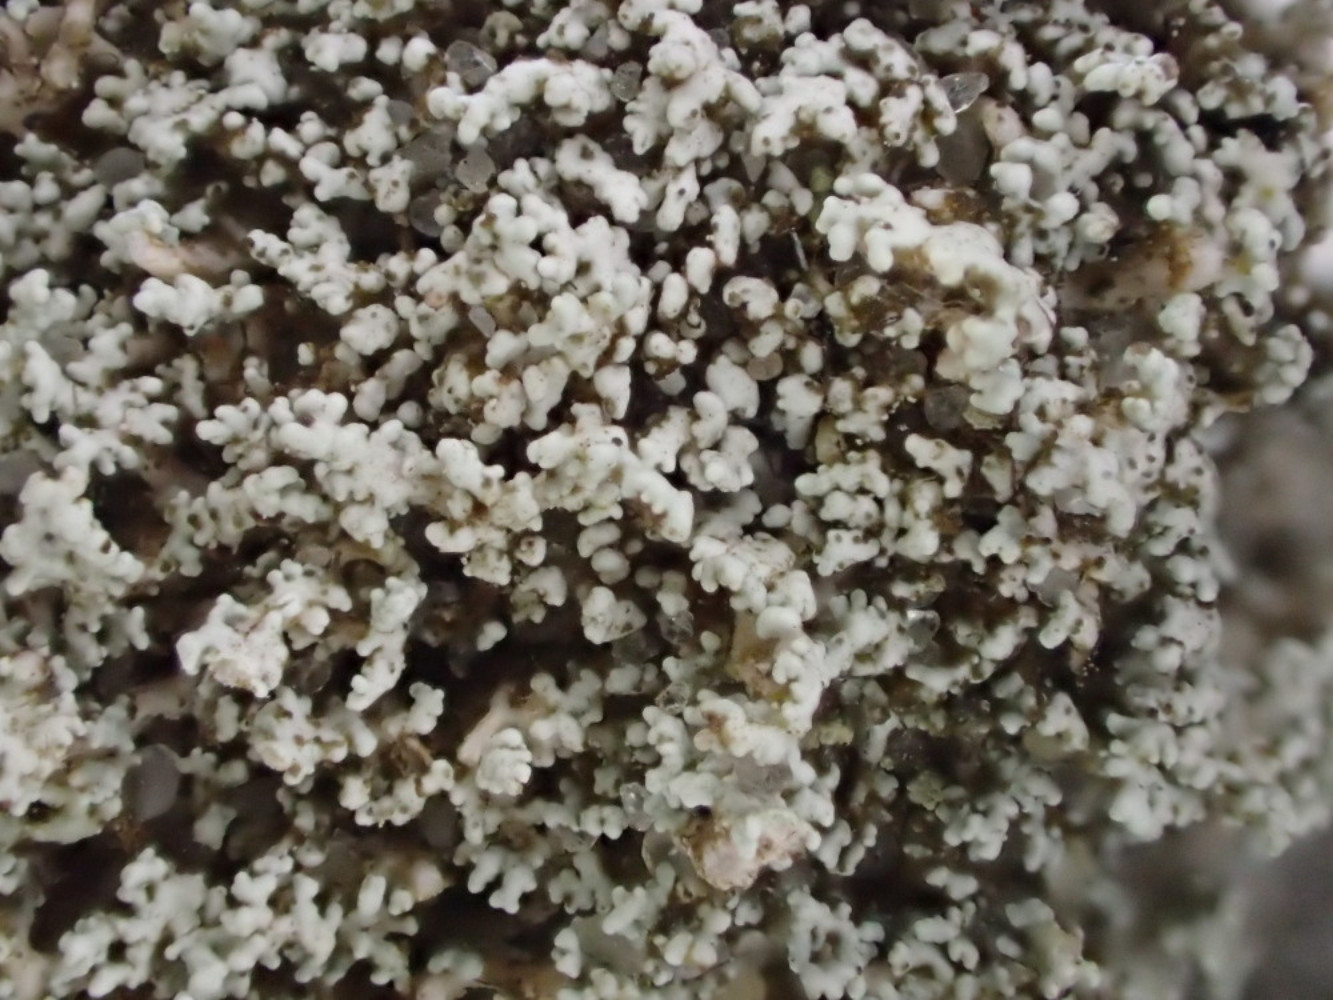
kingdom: Fungi
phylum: Ascomycota
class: Lecanoromycetes
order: Lecanorales
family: Stereocaulaceae
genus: Stereocaulon
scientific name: Stereocaulon condensatum
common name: lav korallav
